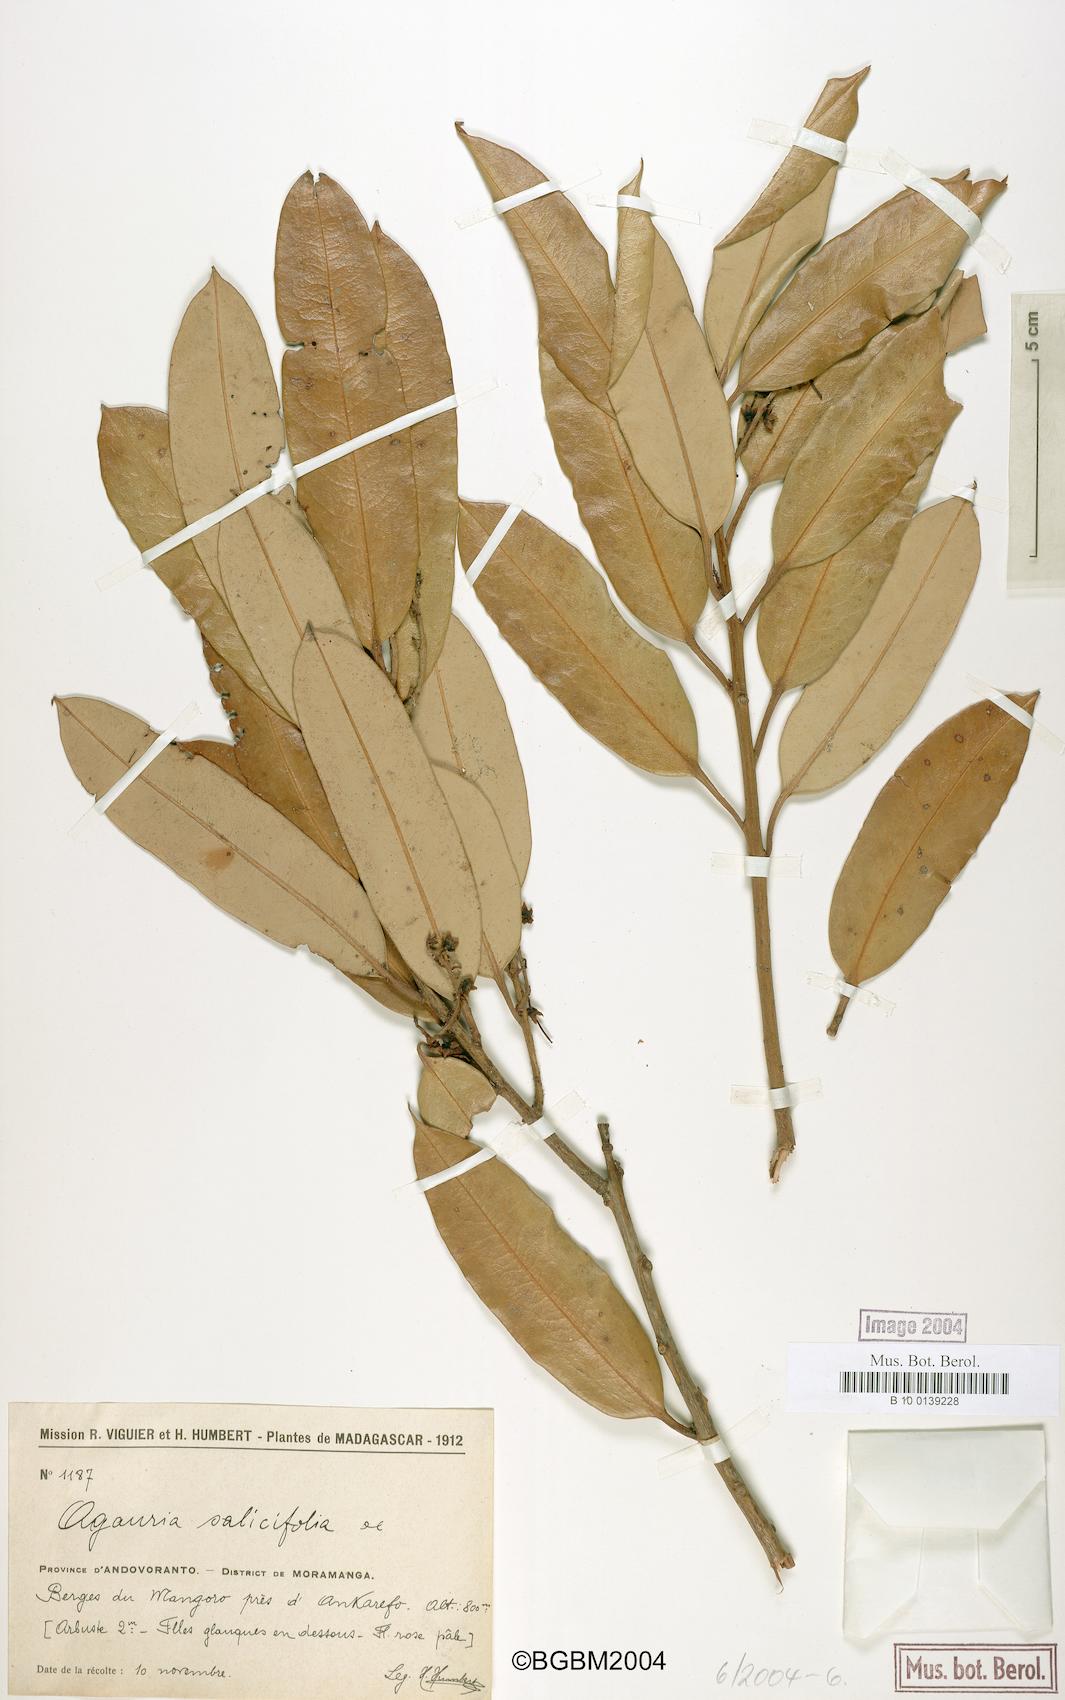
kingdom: Plantae
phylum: Tracheophyta
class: Magnoliopsida
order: Ericales
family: Ericaceae
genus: Agarista
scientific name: Agarista salicifolia
